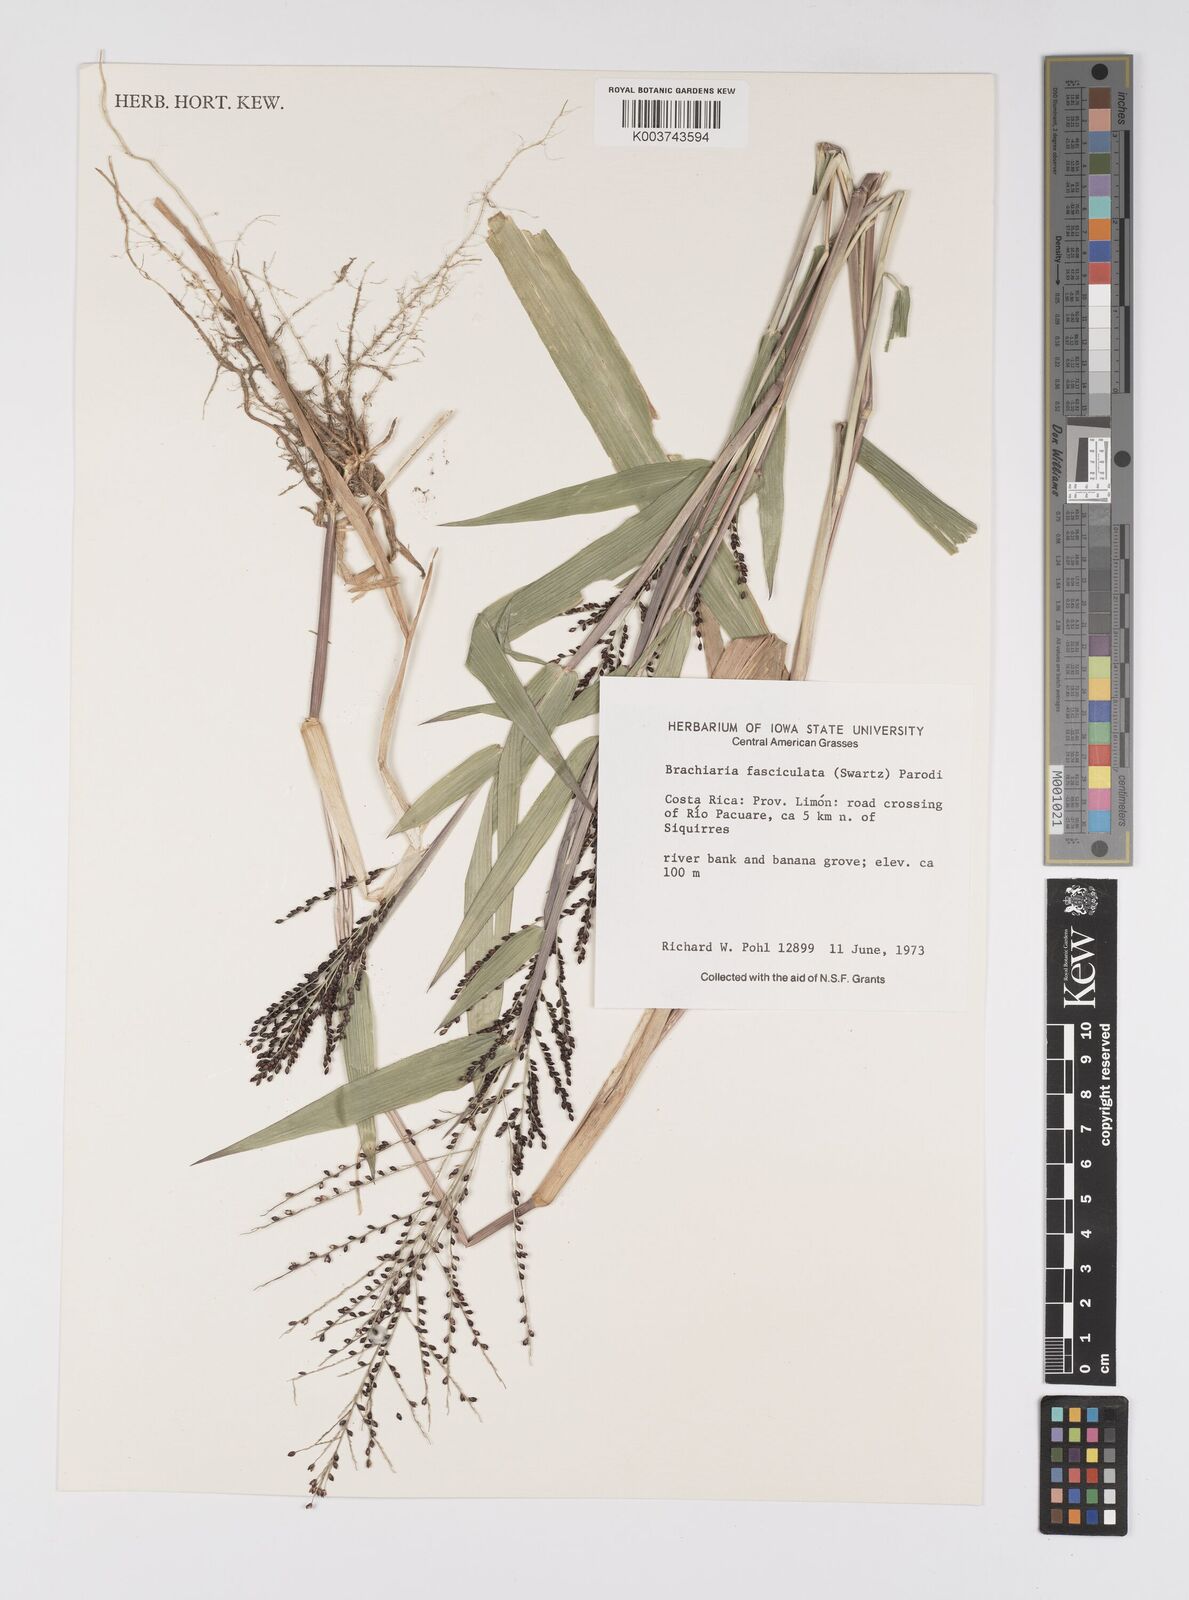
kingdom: Plantae
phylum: Tracheophyta
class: Liliopsida
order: Poales
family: Poaceae
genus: Urochloa
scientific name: Urochloa fusca
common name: Browntop signal grass
